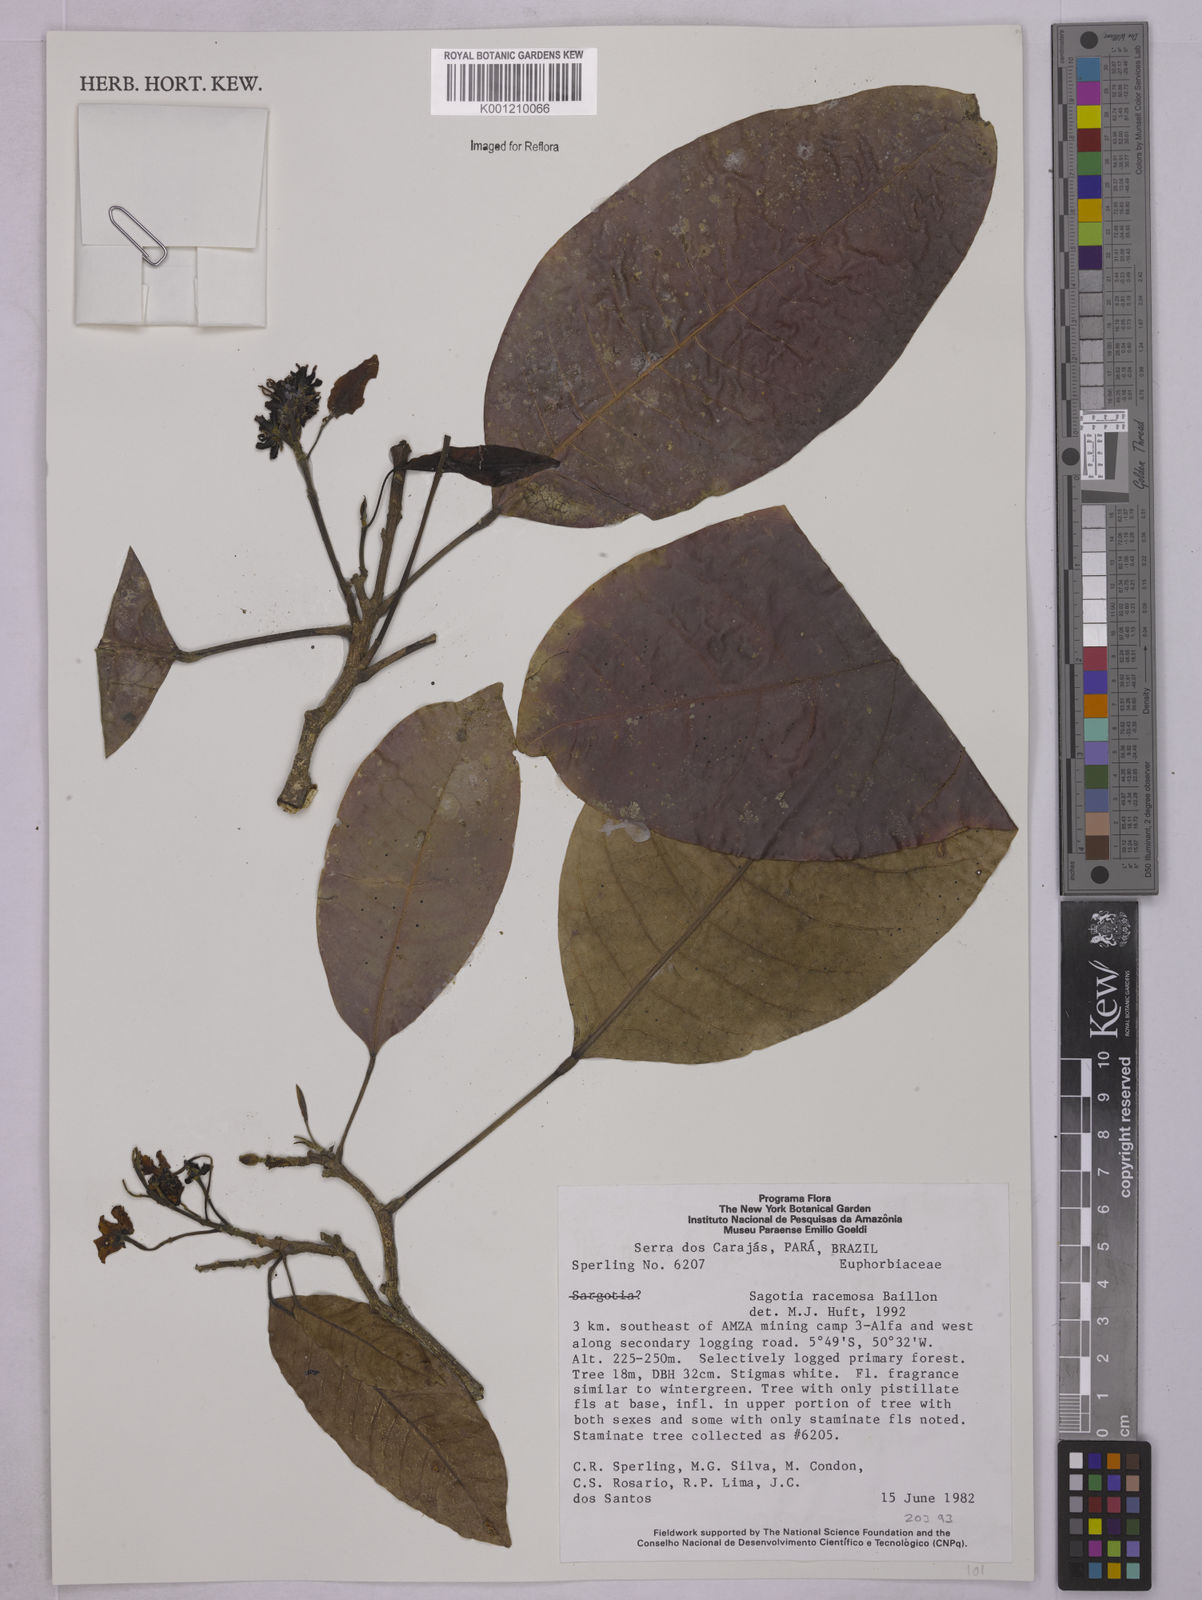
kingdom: Plantae
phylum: Tracheophyta
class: Magnoliopsida
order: Malpighiales
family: Euphorbiaceae
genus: Sagotia
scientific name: Sagotia racemosa
